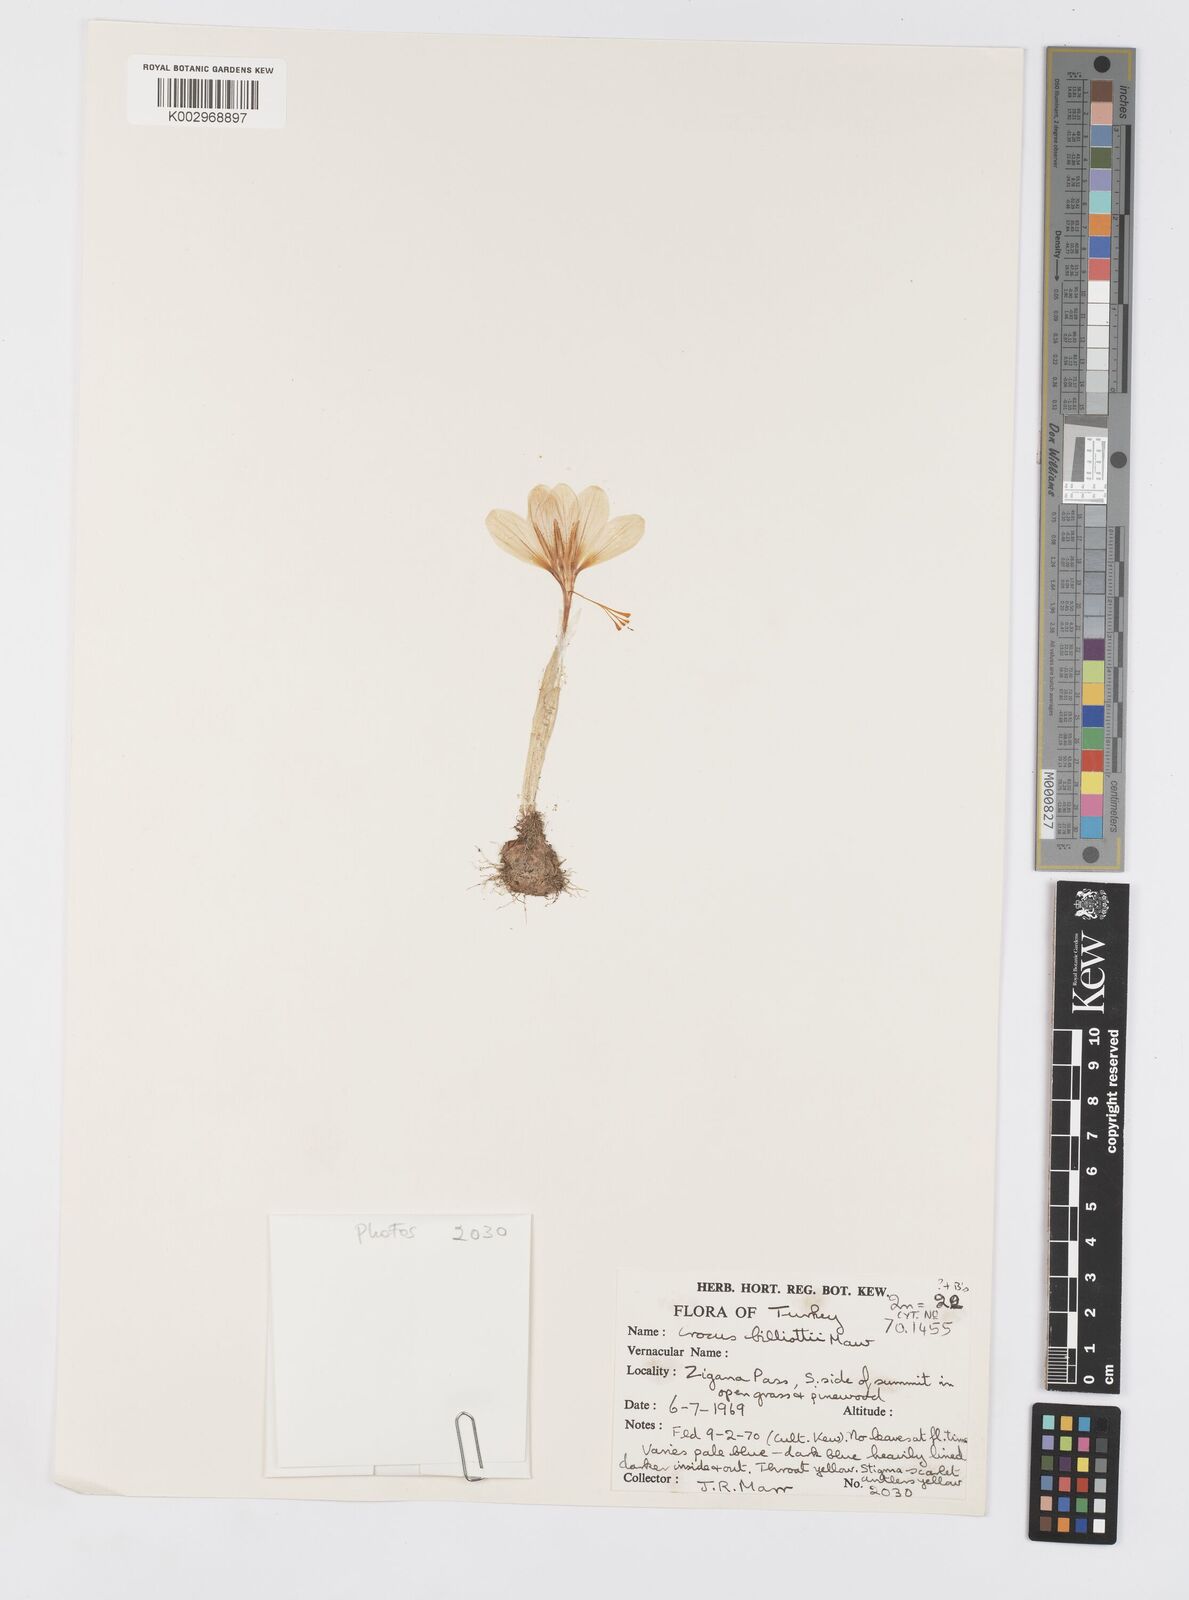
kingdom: Plantae
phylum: Tracheophyta
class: Liliopsida
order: Asparagales
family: Iridaceae
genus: Crocus
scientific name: Crocus aerius
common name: Aerial crocus
